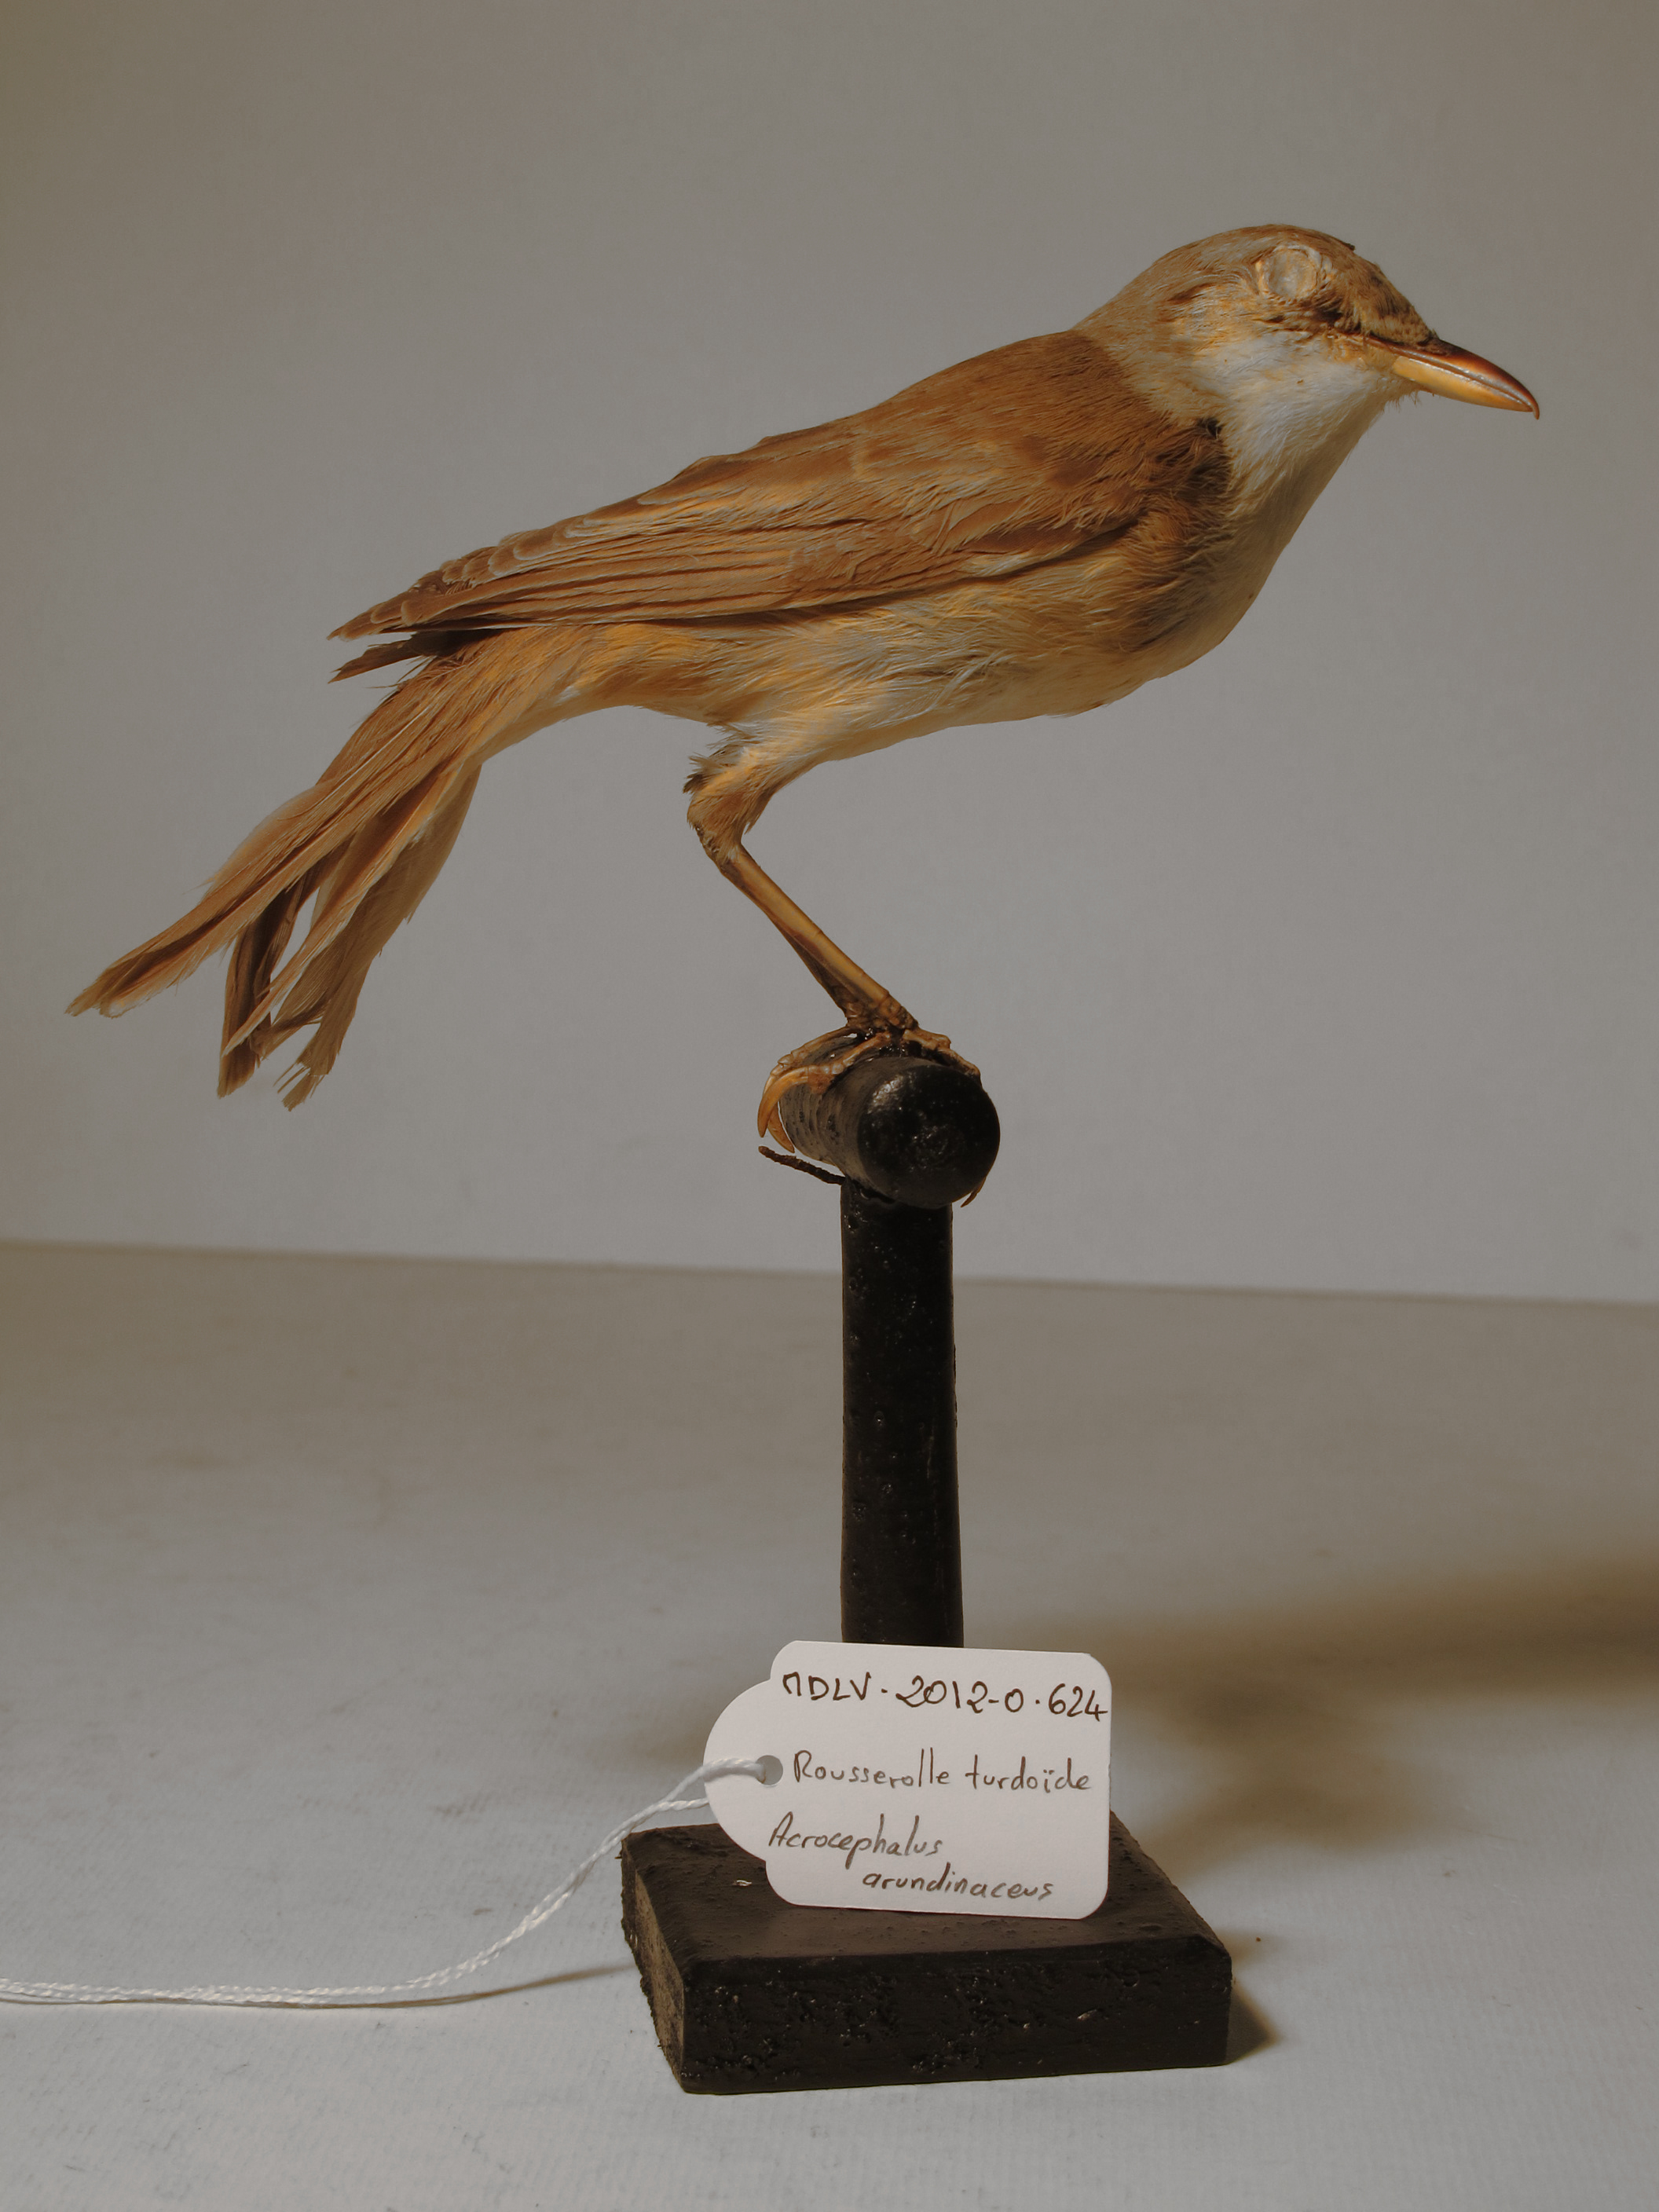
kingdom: Animalia
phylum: Chordata
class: Aves
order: Passeriformes
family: Acrocephalidae
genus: Acrocephalus
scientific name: Acrocephalus arundinaceus
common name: Great Reed-warbler
